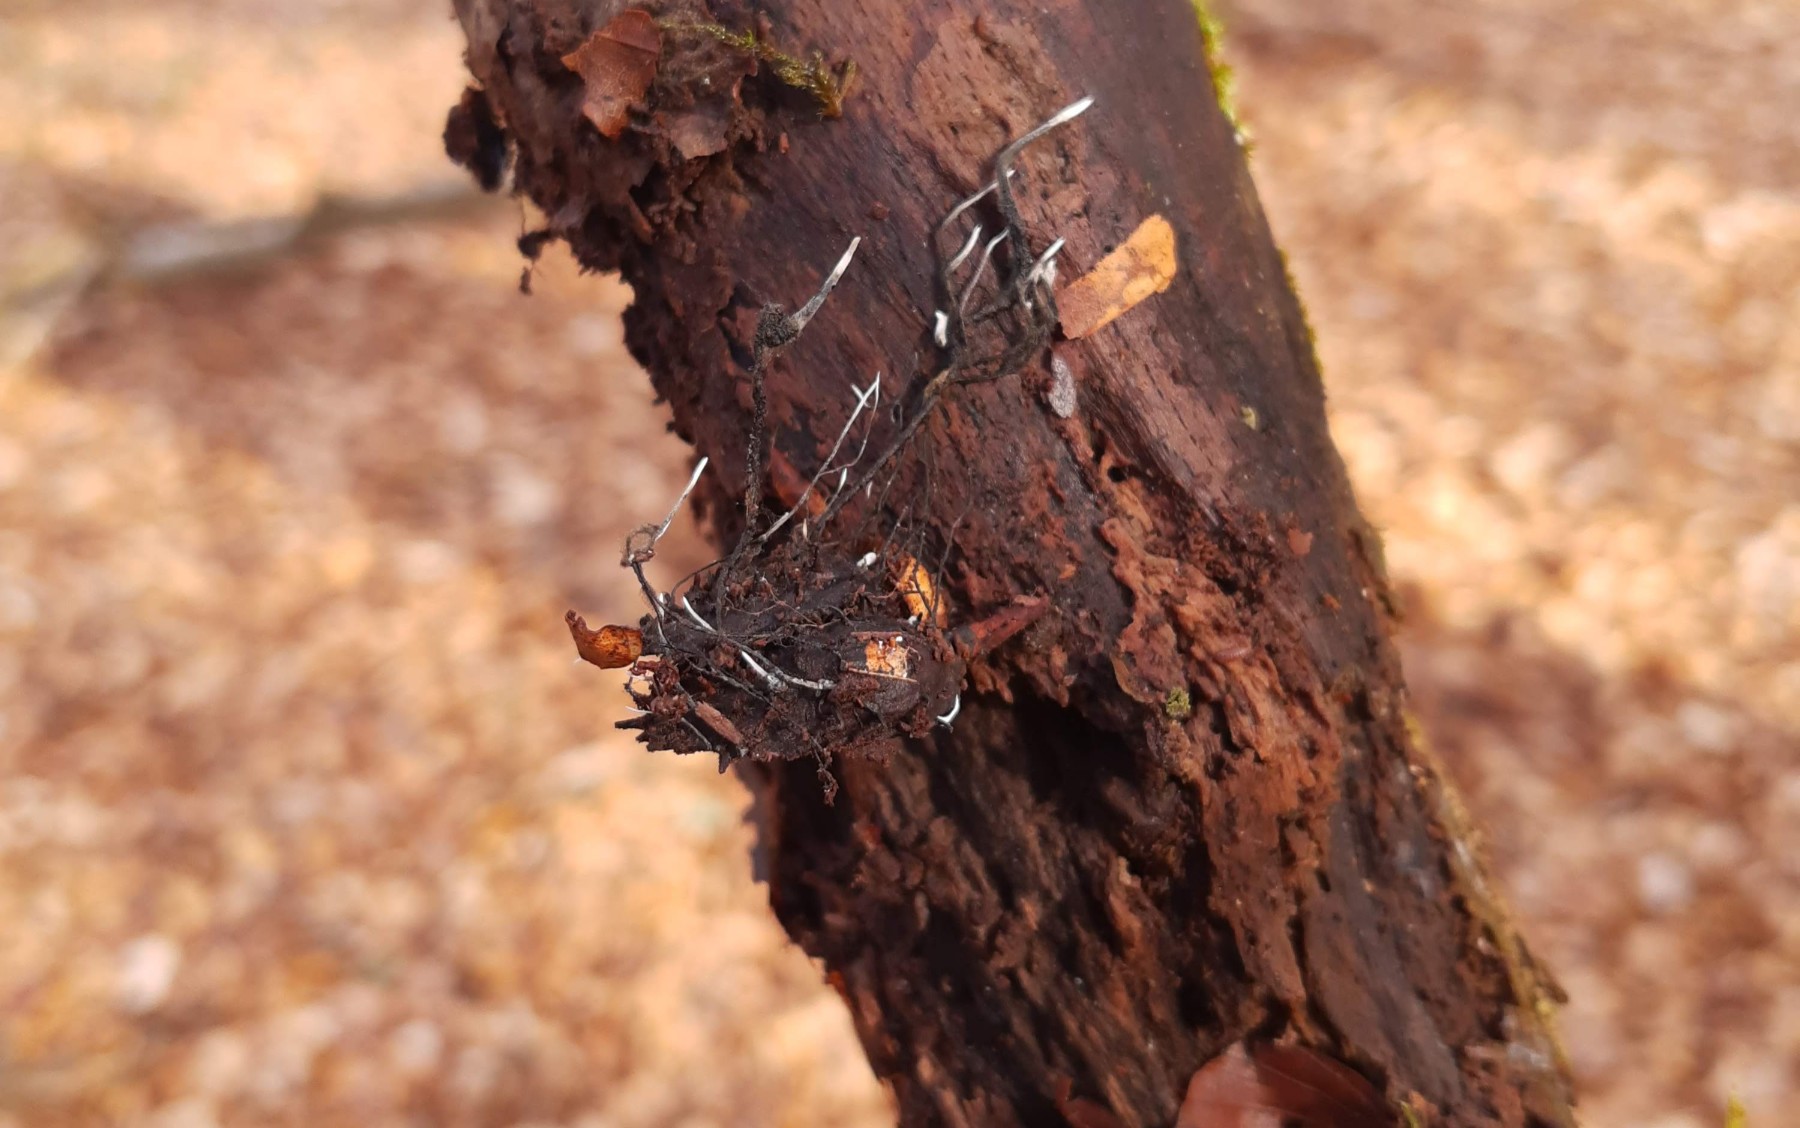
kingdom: Fungi
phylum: Ascomycota
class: Sordariomycetes
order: Xylariales
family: Xylariaceae
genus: Xylaria
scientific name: Xylaria carpophila
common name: bogskål-stødsvamp
